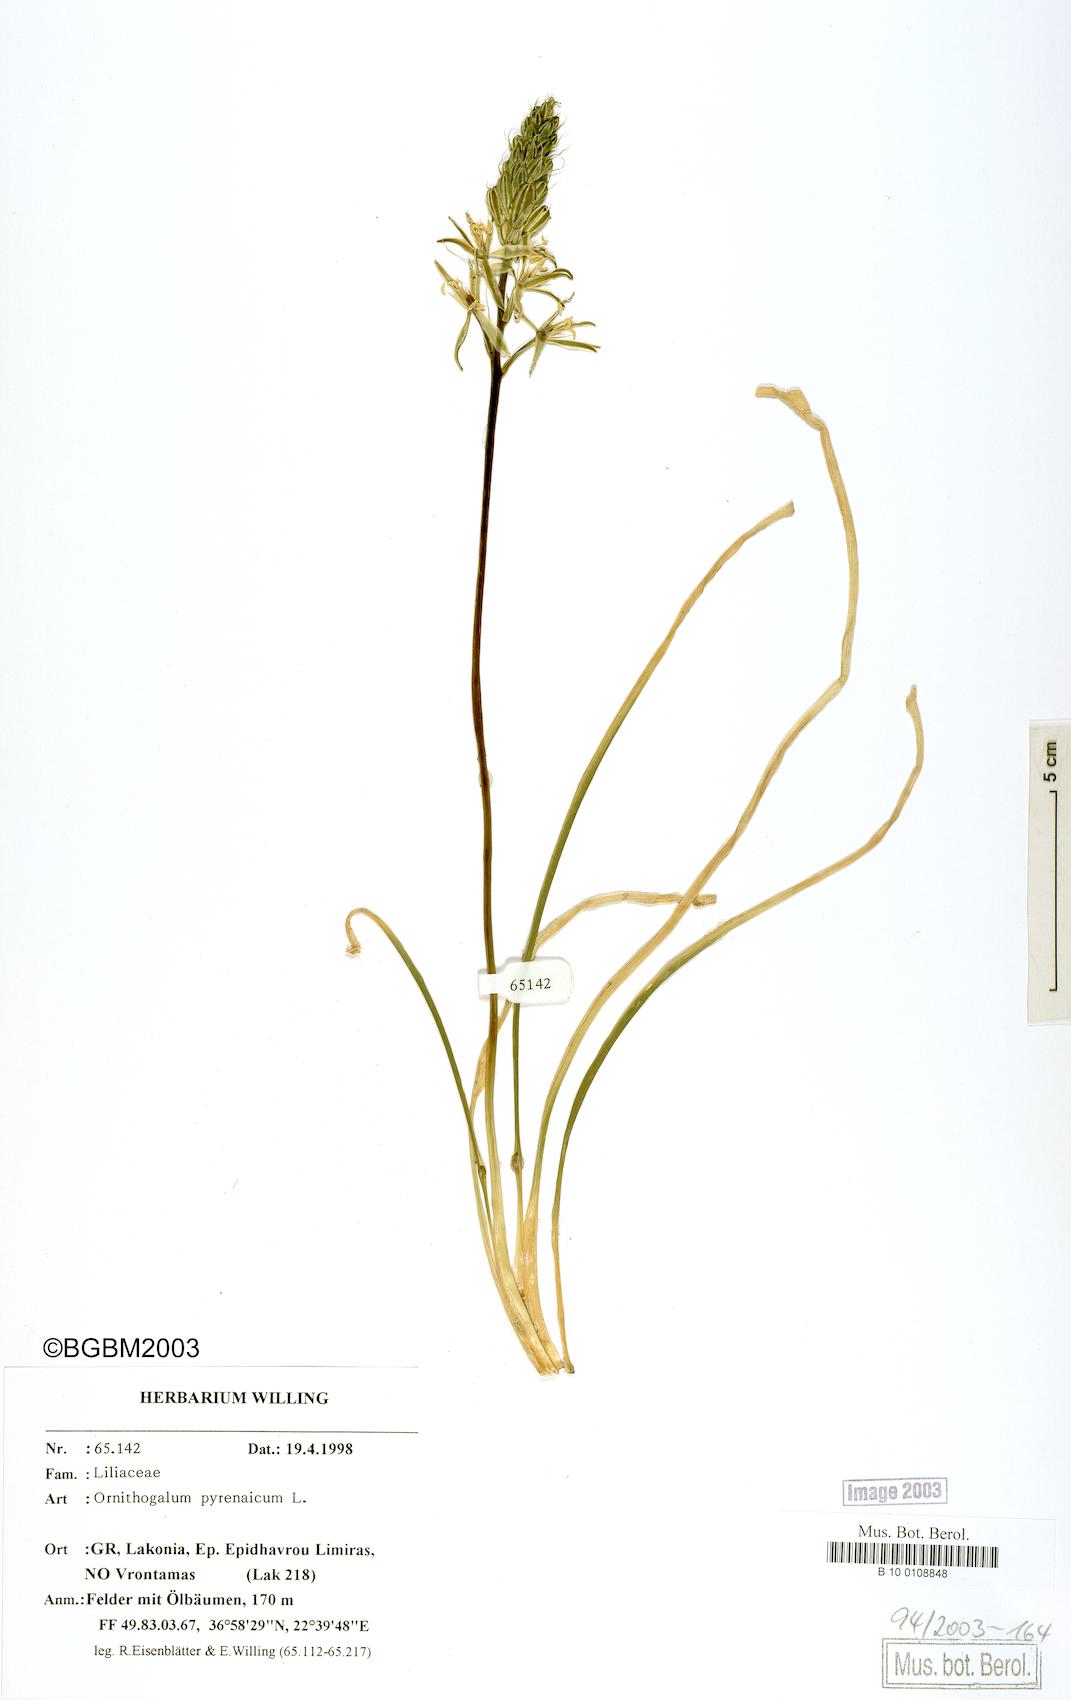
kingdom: Plantae
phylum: Tracheophyta
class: Liliopsida
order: Asparagales
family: Asparagaceae
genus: Ornithogalum
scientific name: Ornithogalum pyrenaicum
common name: Spiked star-of-bethlehem
